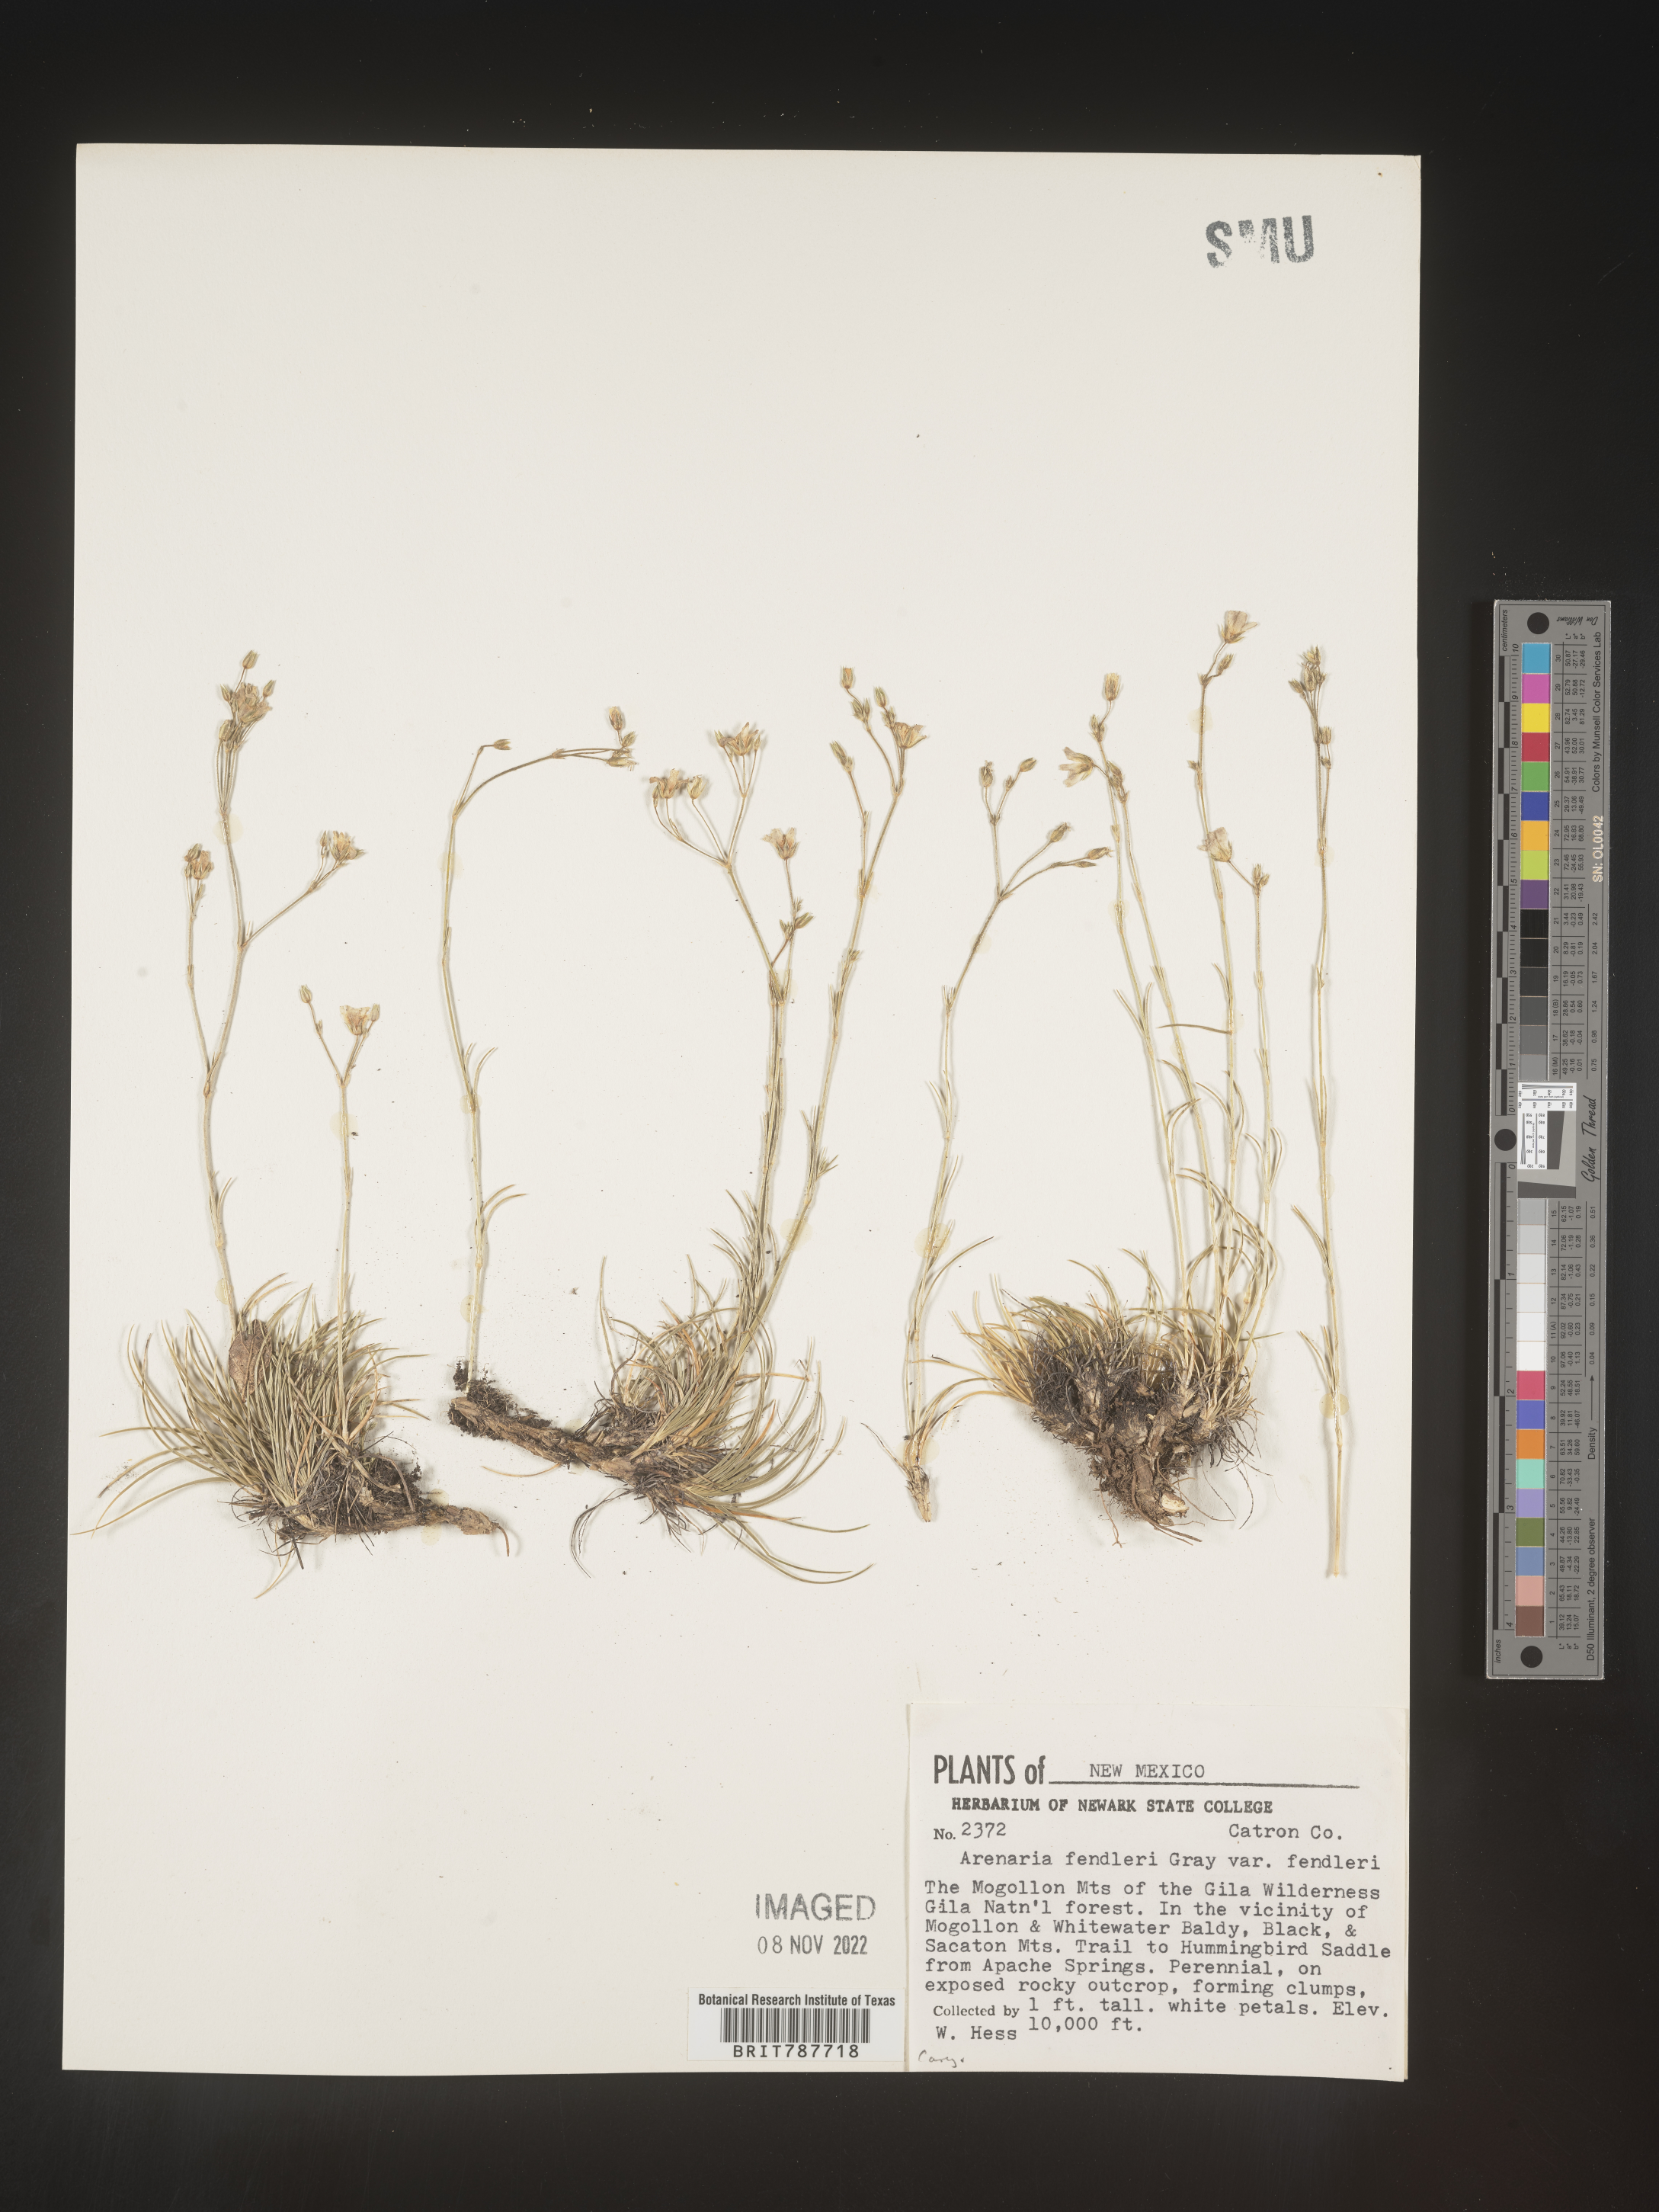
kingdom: Plantae
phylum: Tracheophyta
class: Magnoliopsida
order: Caryophyllales
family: Caryophyllaceae
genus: Arenaria
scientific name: Arenaria
